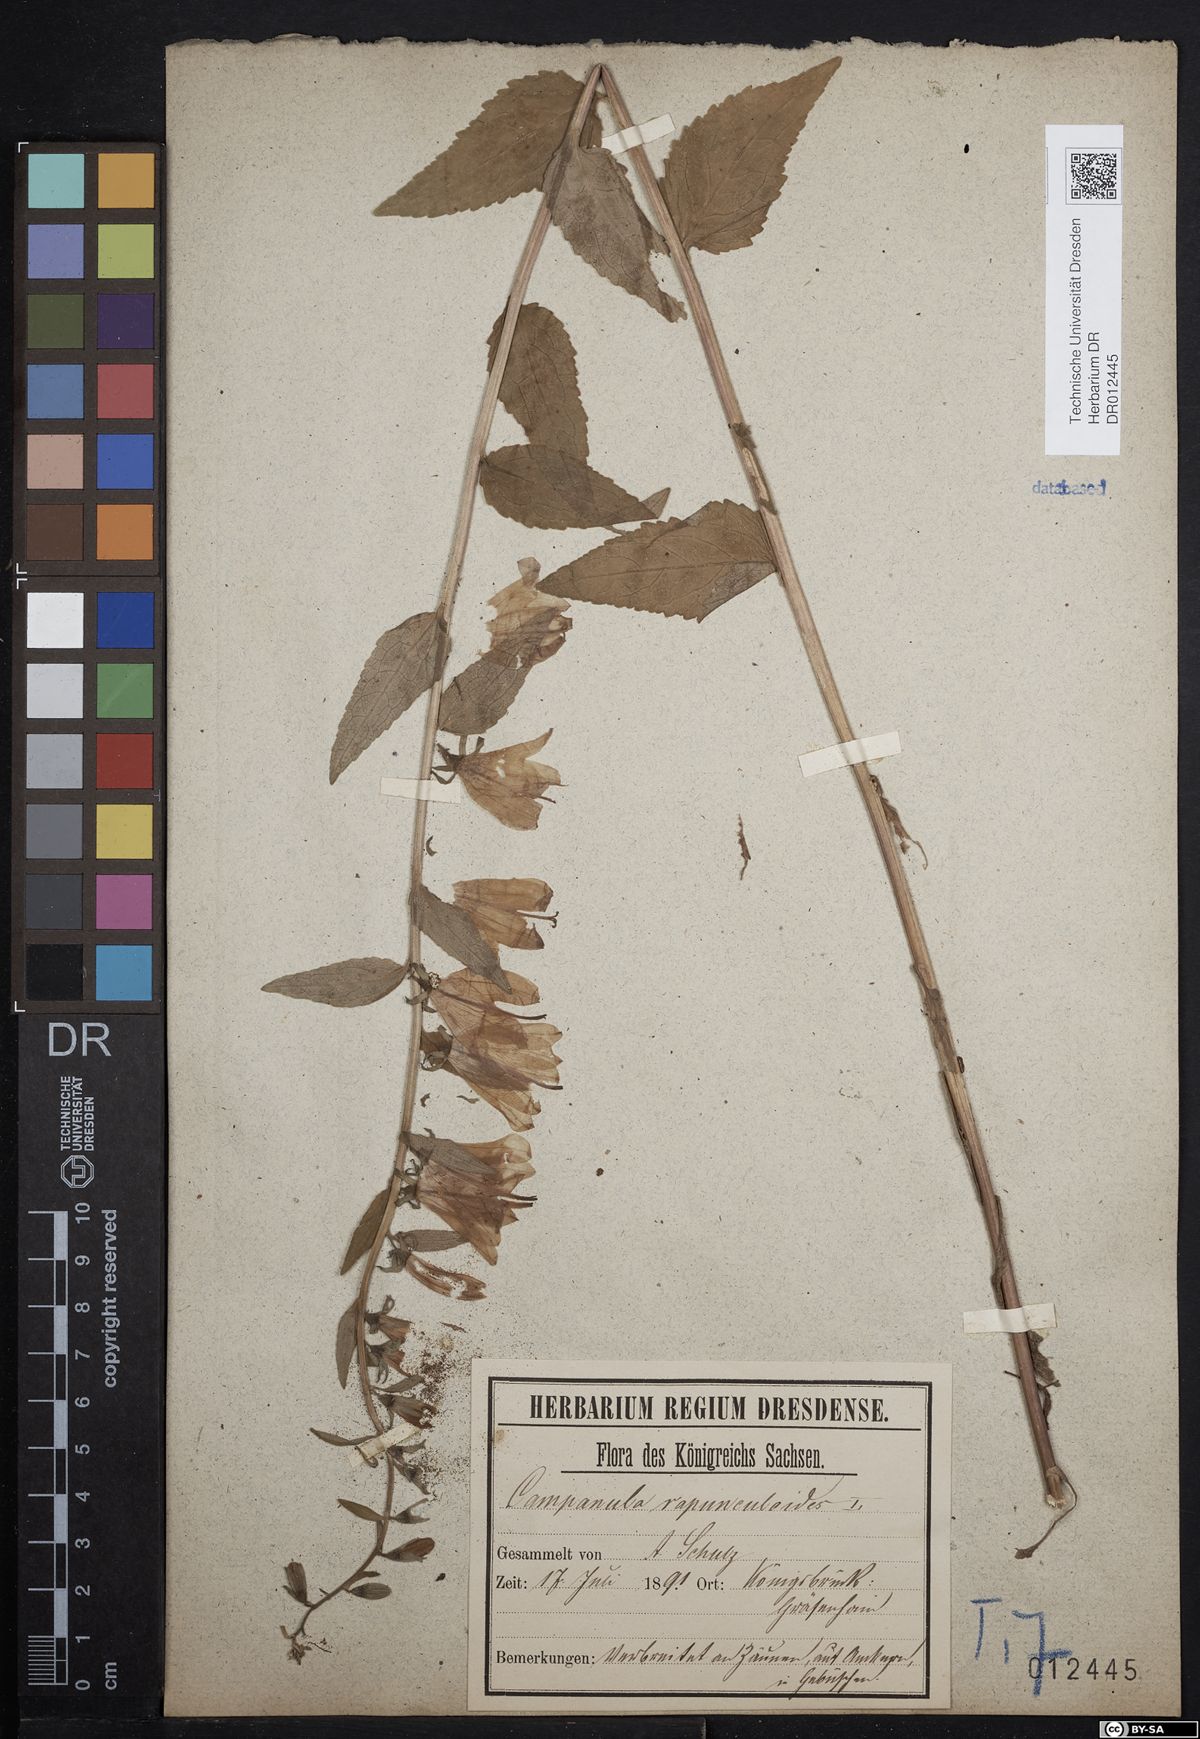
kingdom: Plantae
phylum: Tracheophyta
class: Magnoliopsida
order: Asterales
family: Campanulaceae
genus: Campanula
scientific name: Campanula rapunculoides
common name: Creeping bellflower
